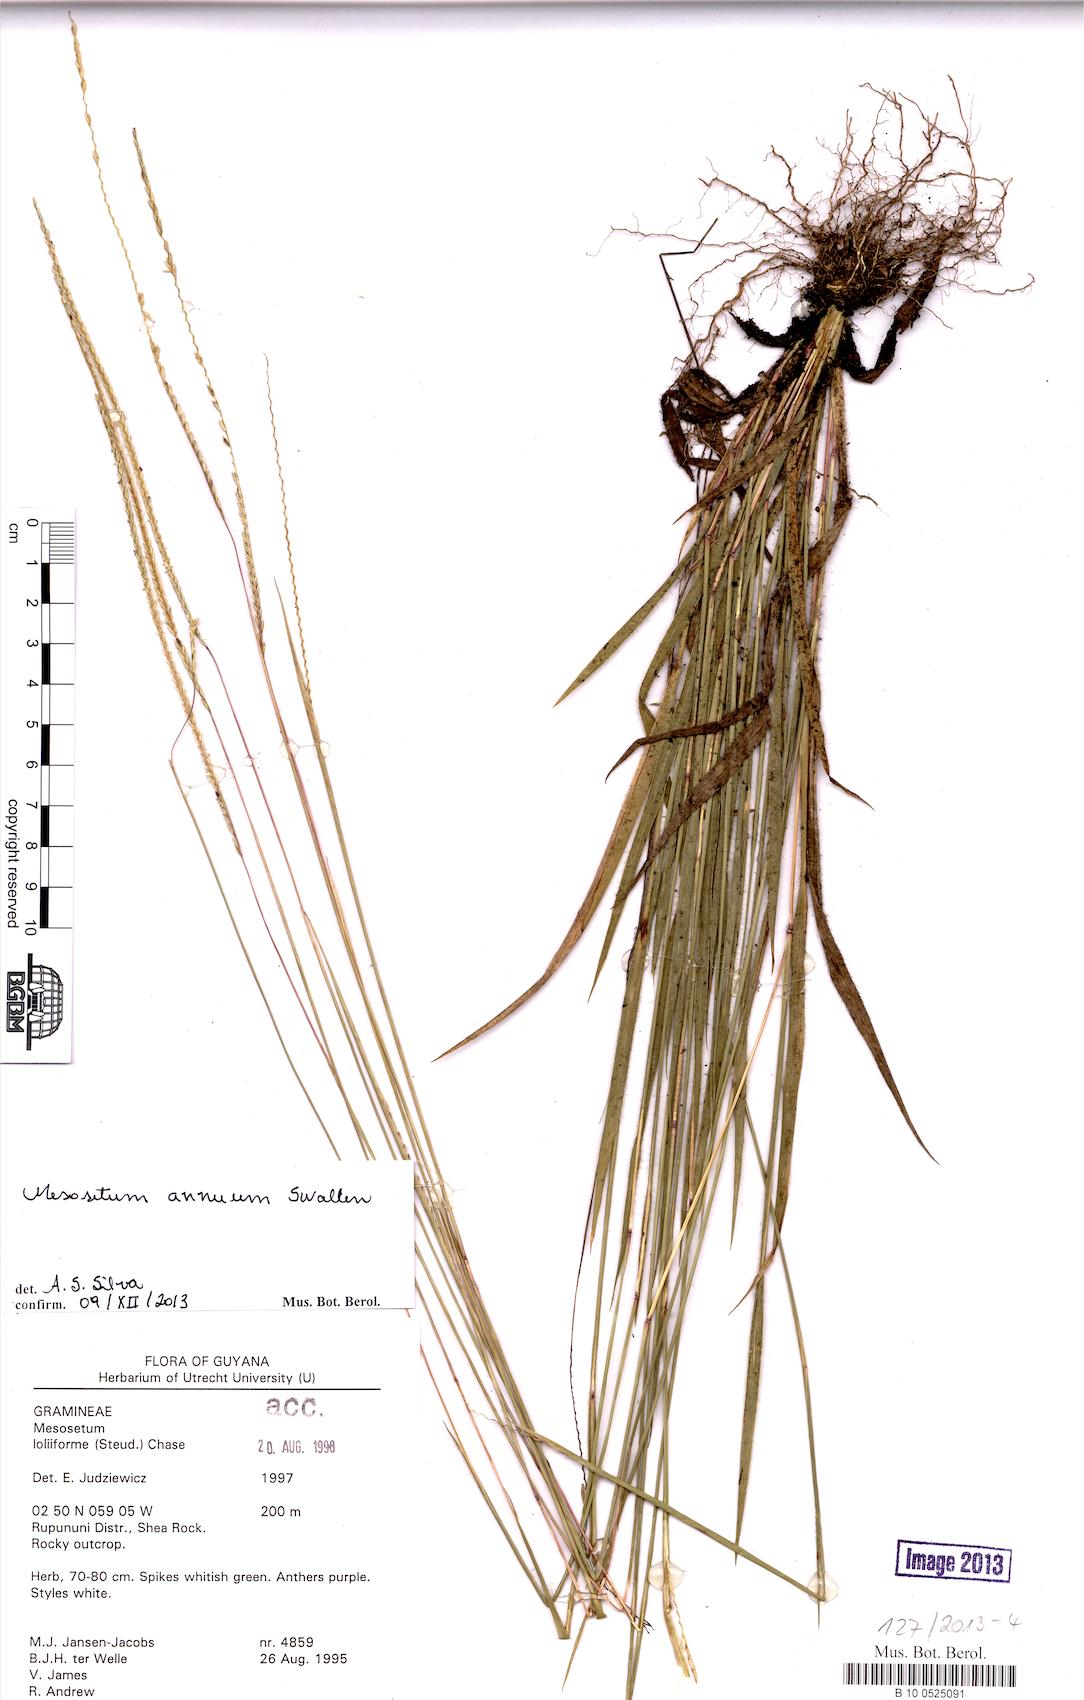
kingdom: Plantae
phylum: Tracheophyta
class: Liliopsida
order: Poales
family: Poaceae
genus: Mesosetum
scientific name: Mesosetum annuum
